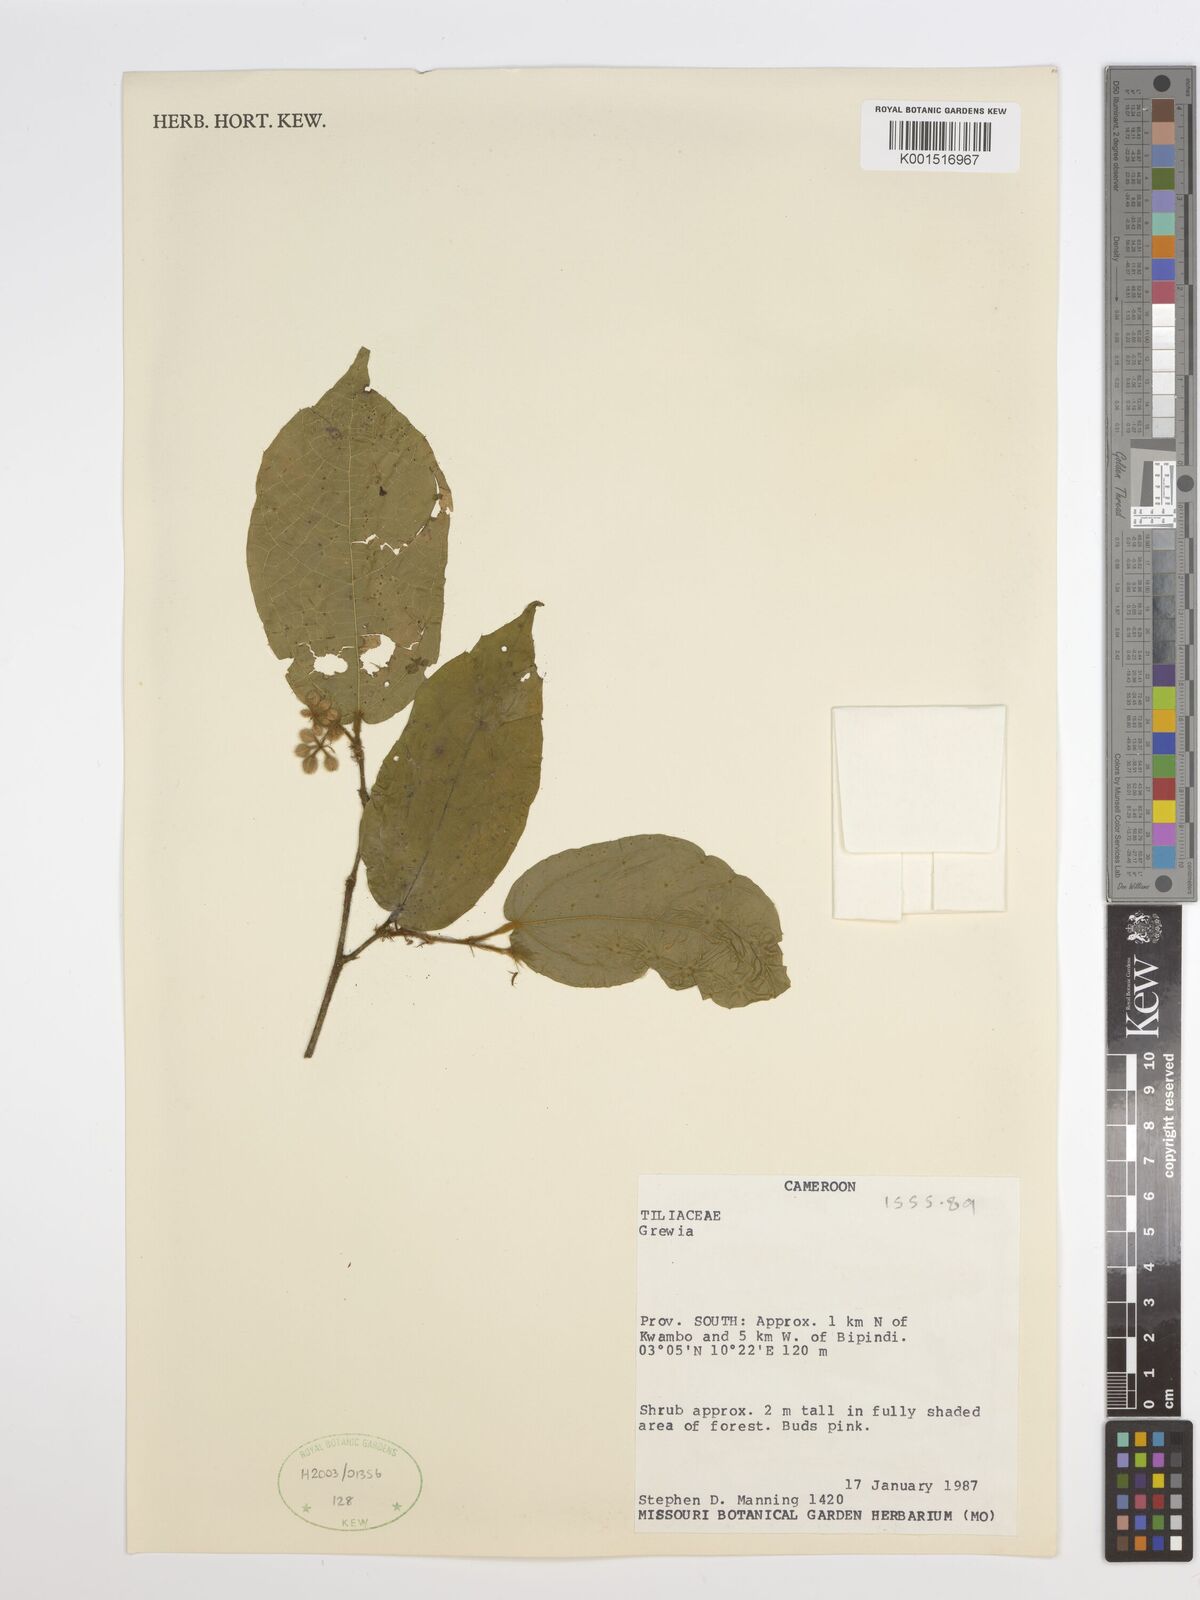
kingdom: Plantae
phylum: Tracheophyta
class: Magnoliopsida
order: Malvales
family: Malvaceae
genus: Grewia
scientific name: Grewia
